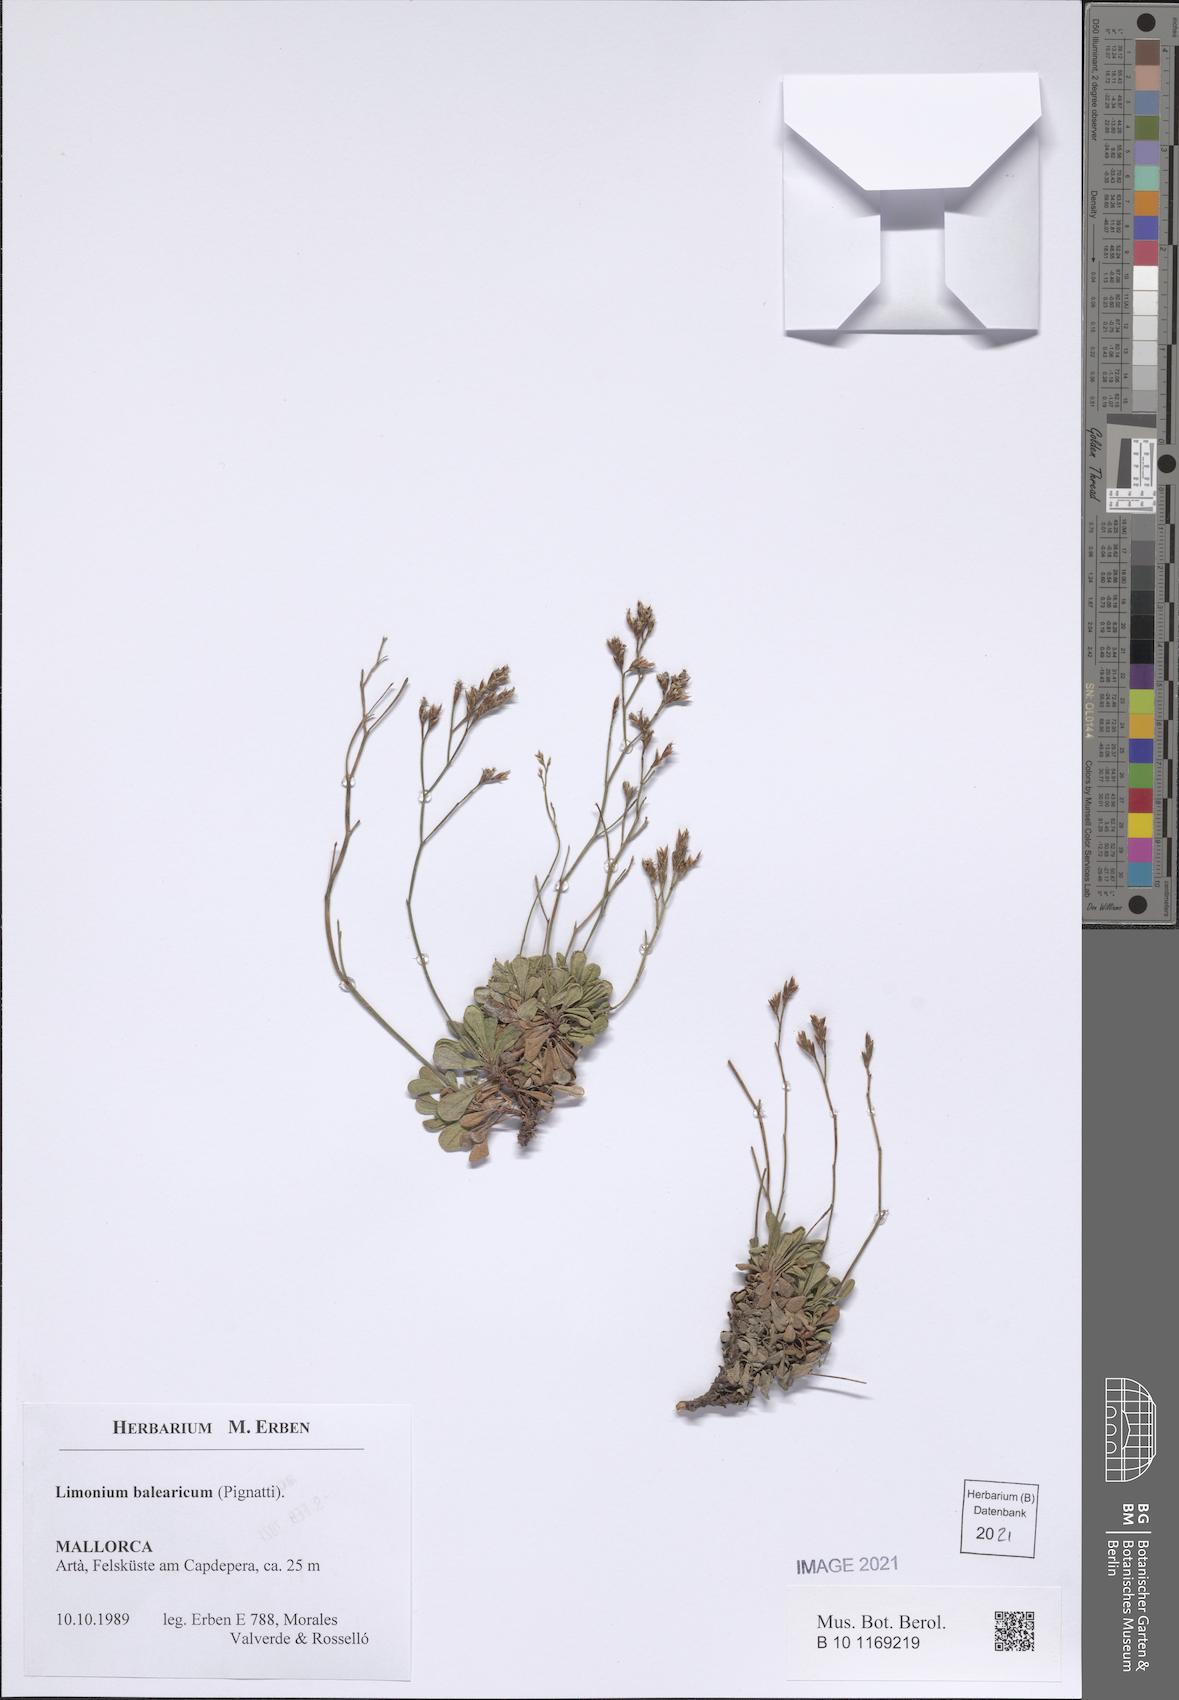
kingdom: Plantae
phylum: Tracheophyta
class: Magnoliopsida
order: Caryophyllales
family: Plumbaginaceae
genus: Limonium
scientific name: Limonium balearicum
